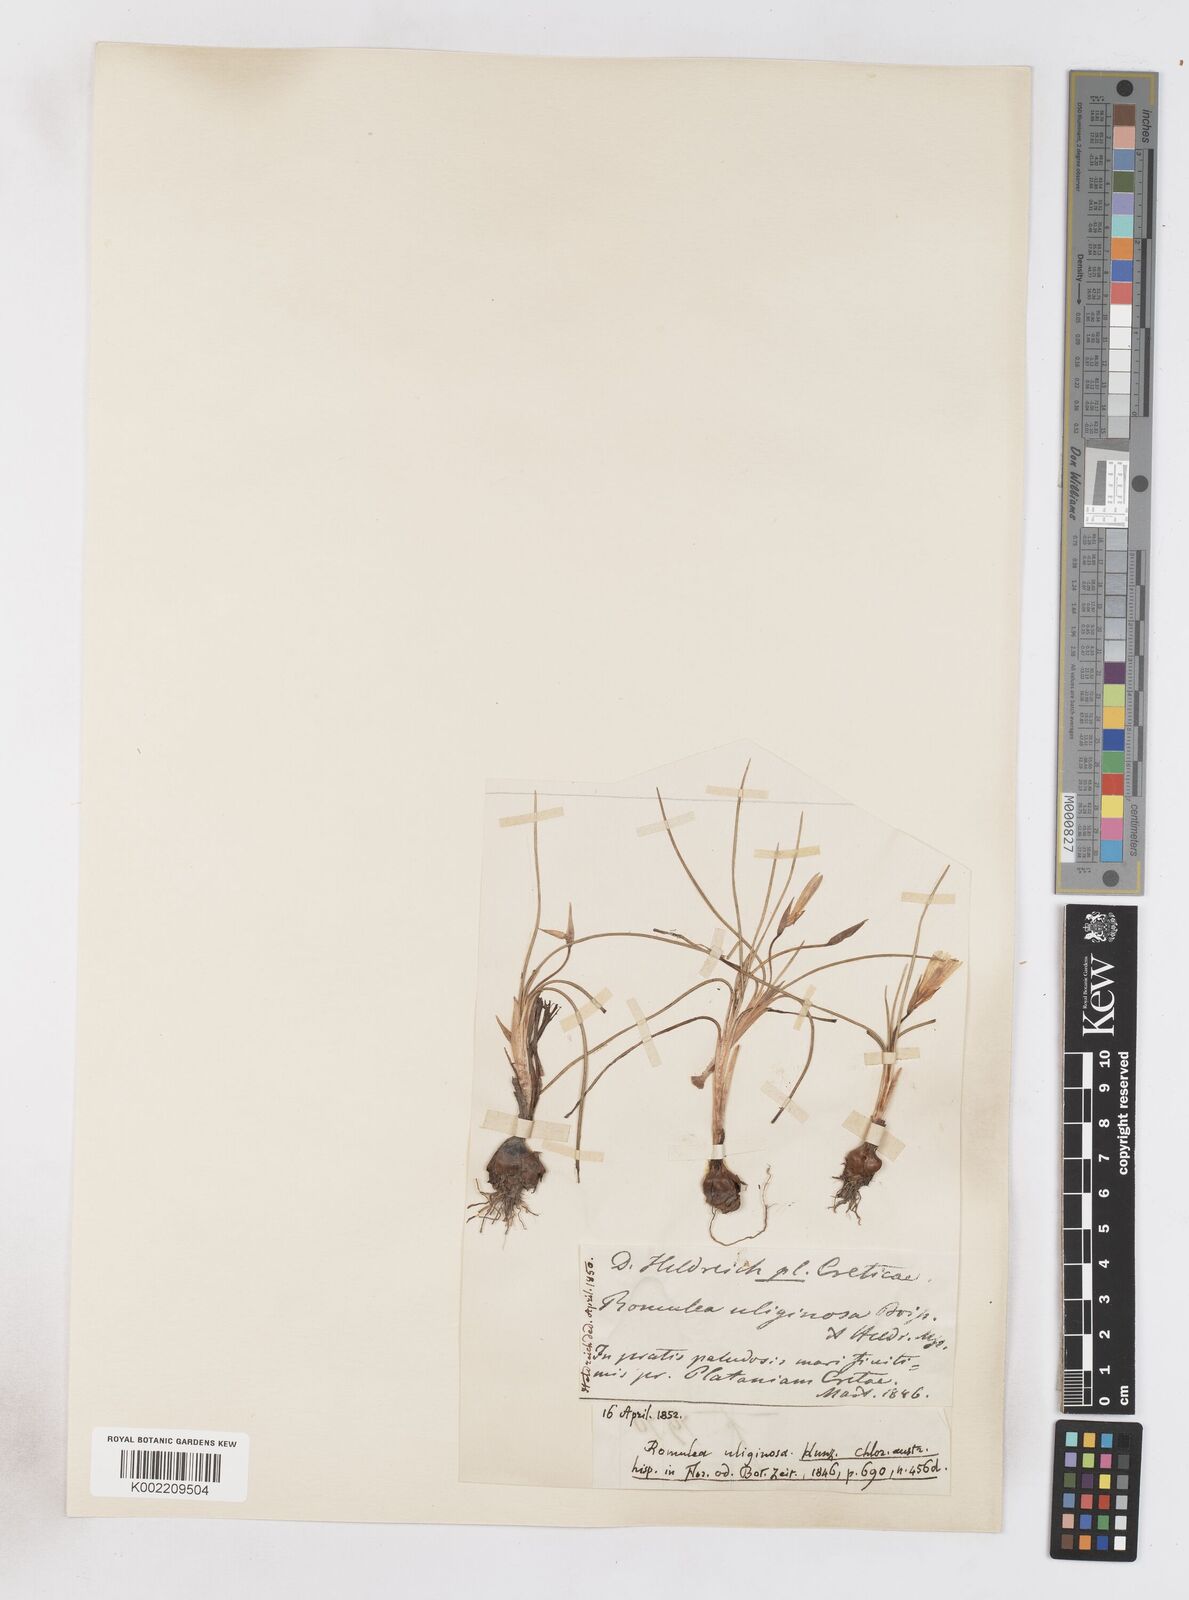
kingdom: Plantae
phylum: Tracheophyta
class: Liliopsida
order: Asparagales
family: Iridaceae
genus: Romulea
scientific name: Romulea bulbocodium
